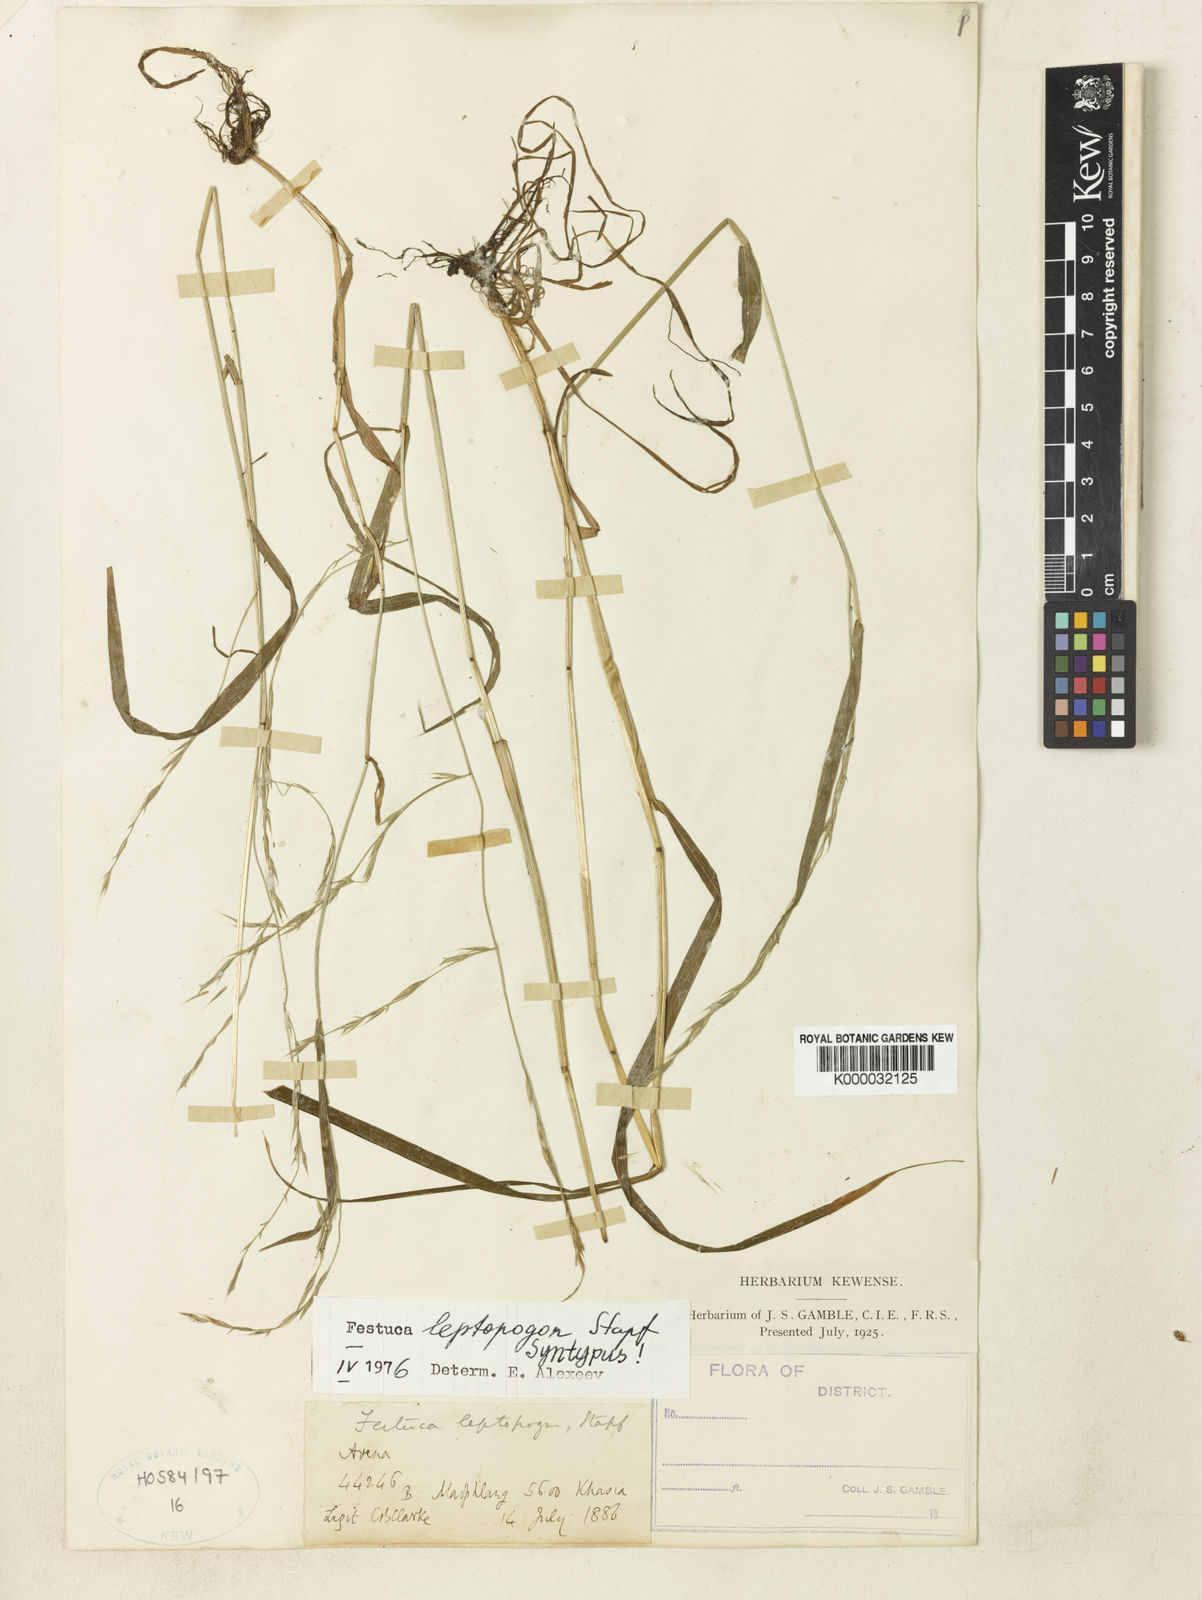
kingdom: Plantae
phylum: Tracheophyta
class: Liliopsida
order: Poales
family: Poaceae
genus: Festuca
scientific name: Festuca leptopogon
